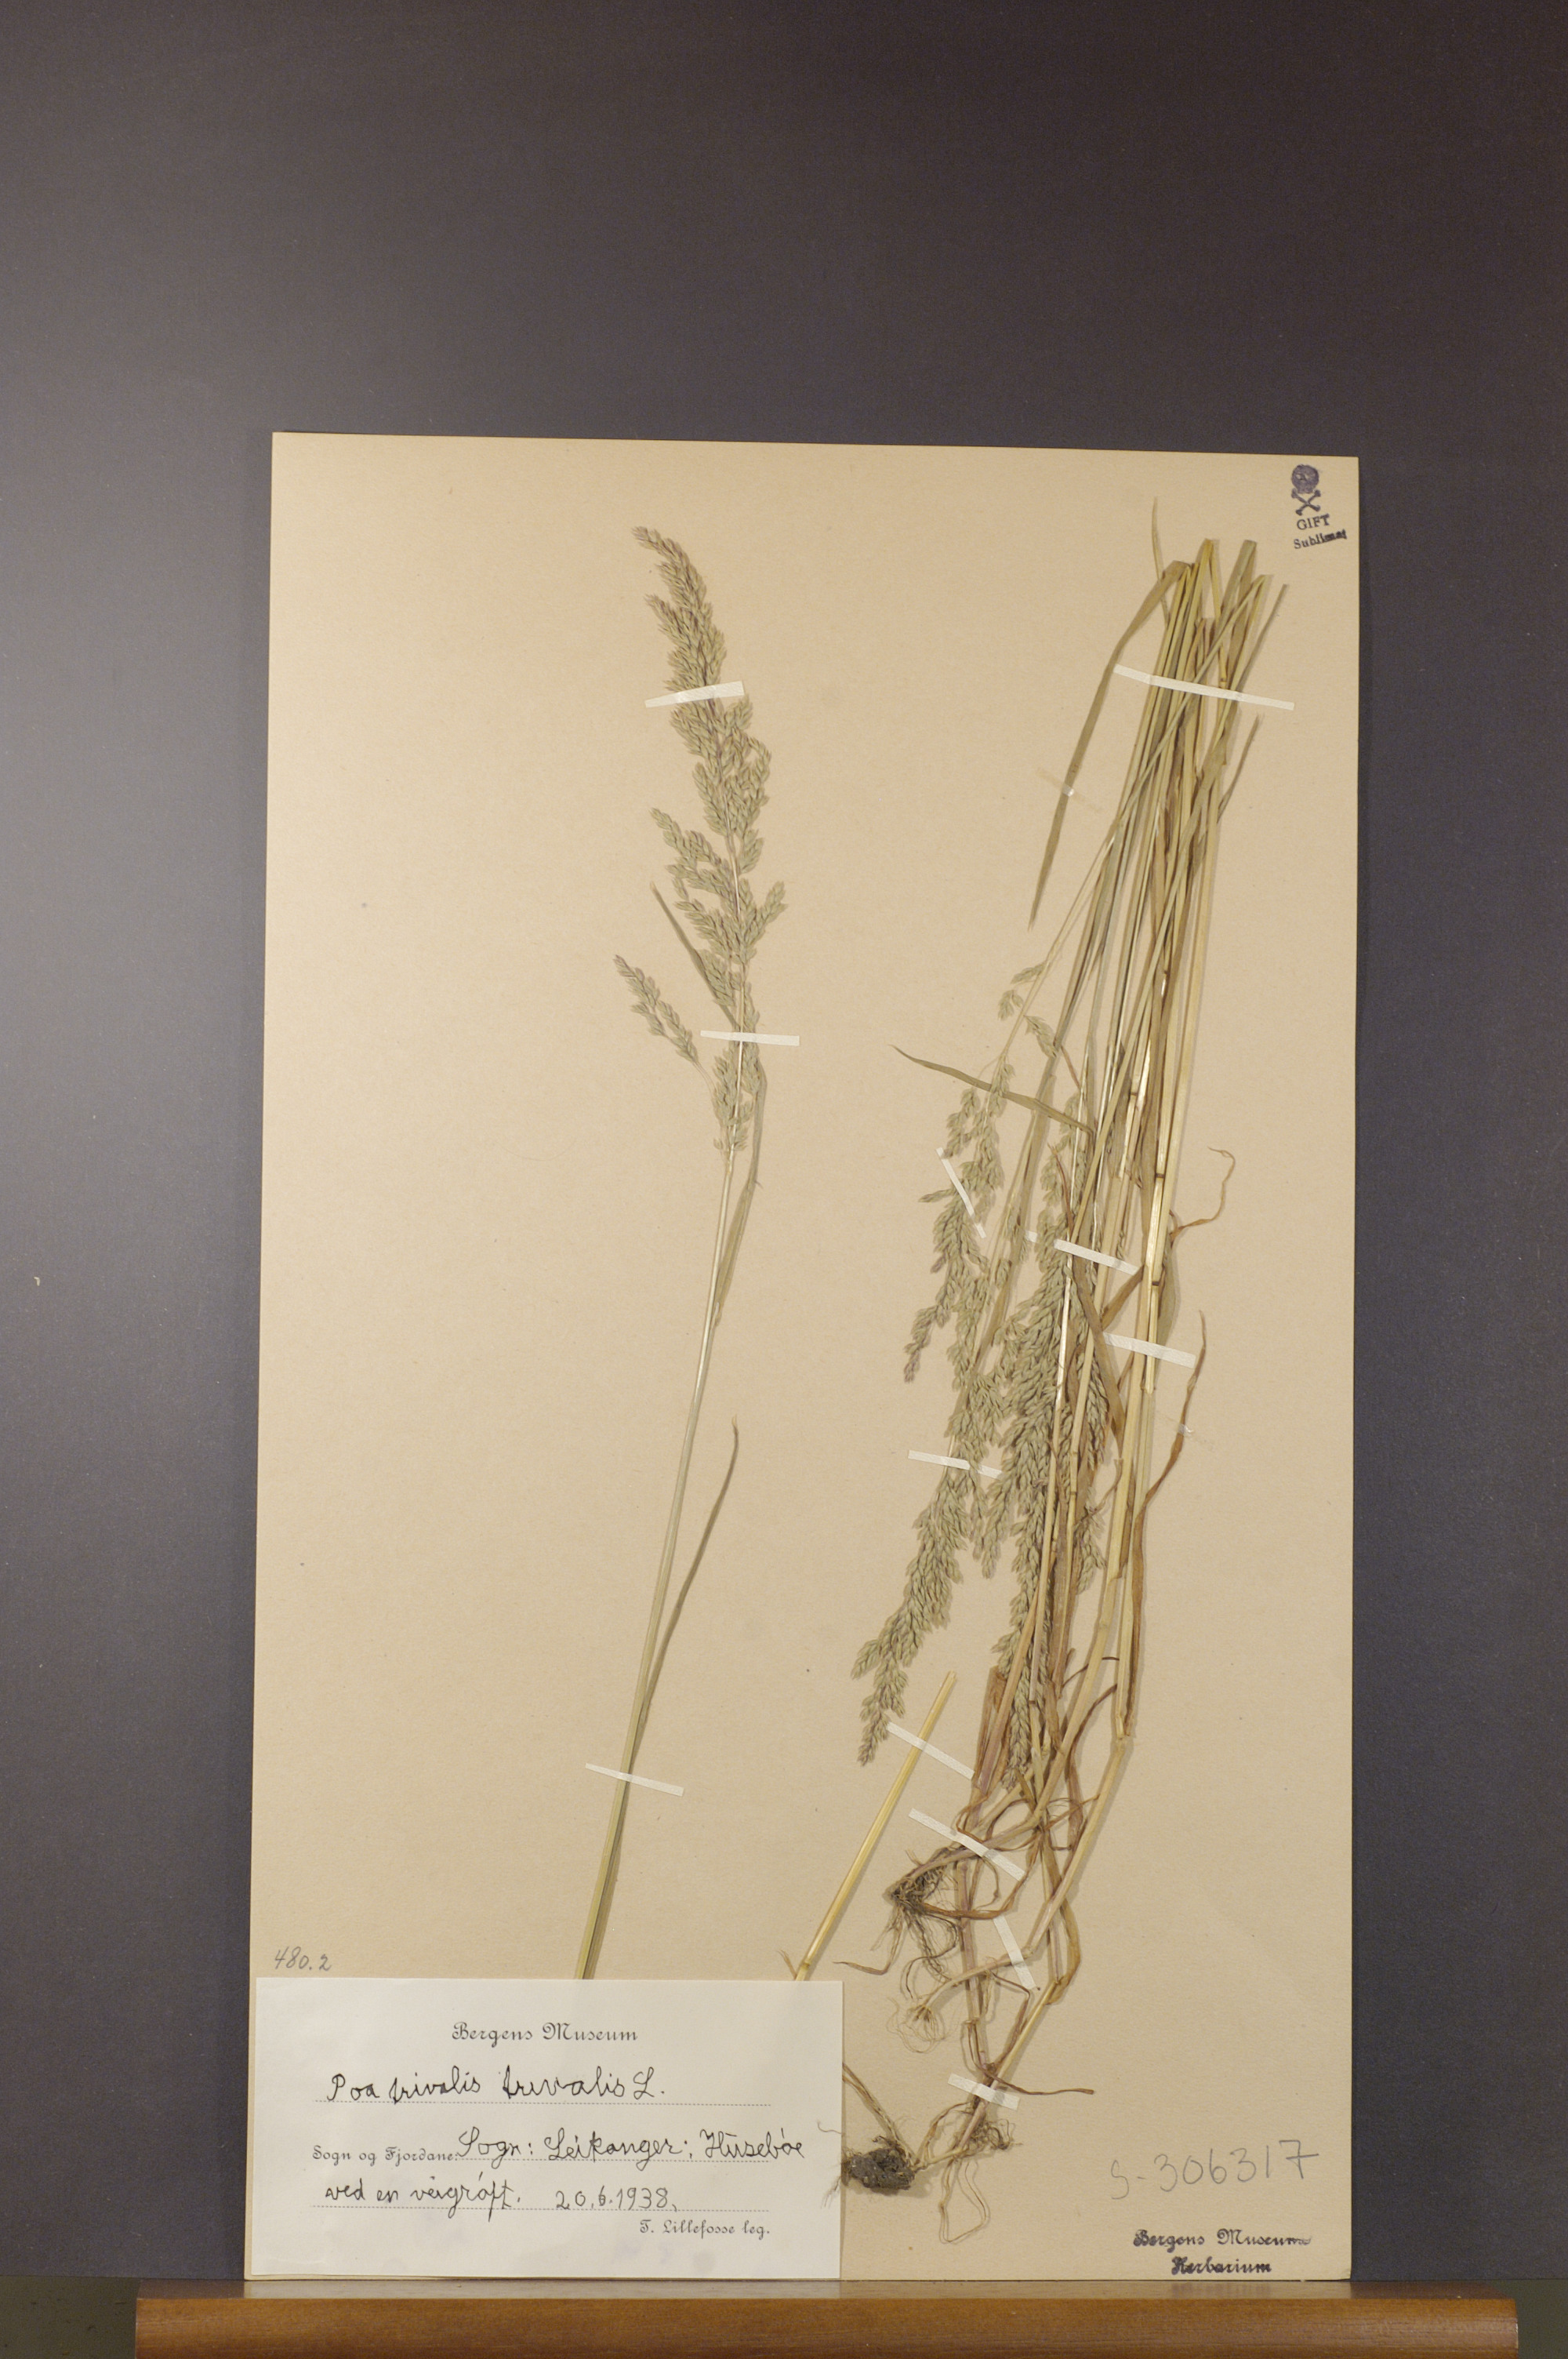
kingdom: Plantae
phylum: Tracheophyta
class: Liliopsida
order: Poales
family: Poaceae
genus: Poa
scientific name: Poa trivialis
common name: Rough bluegrass
